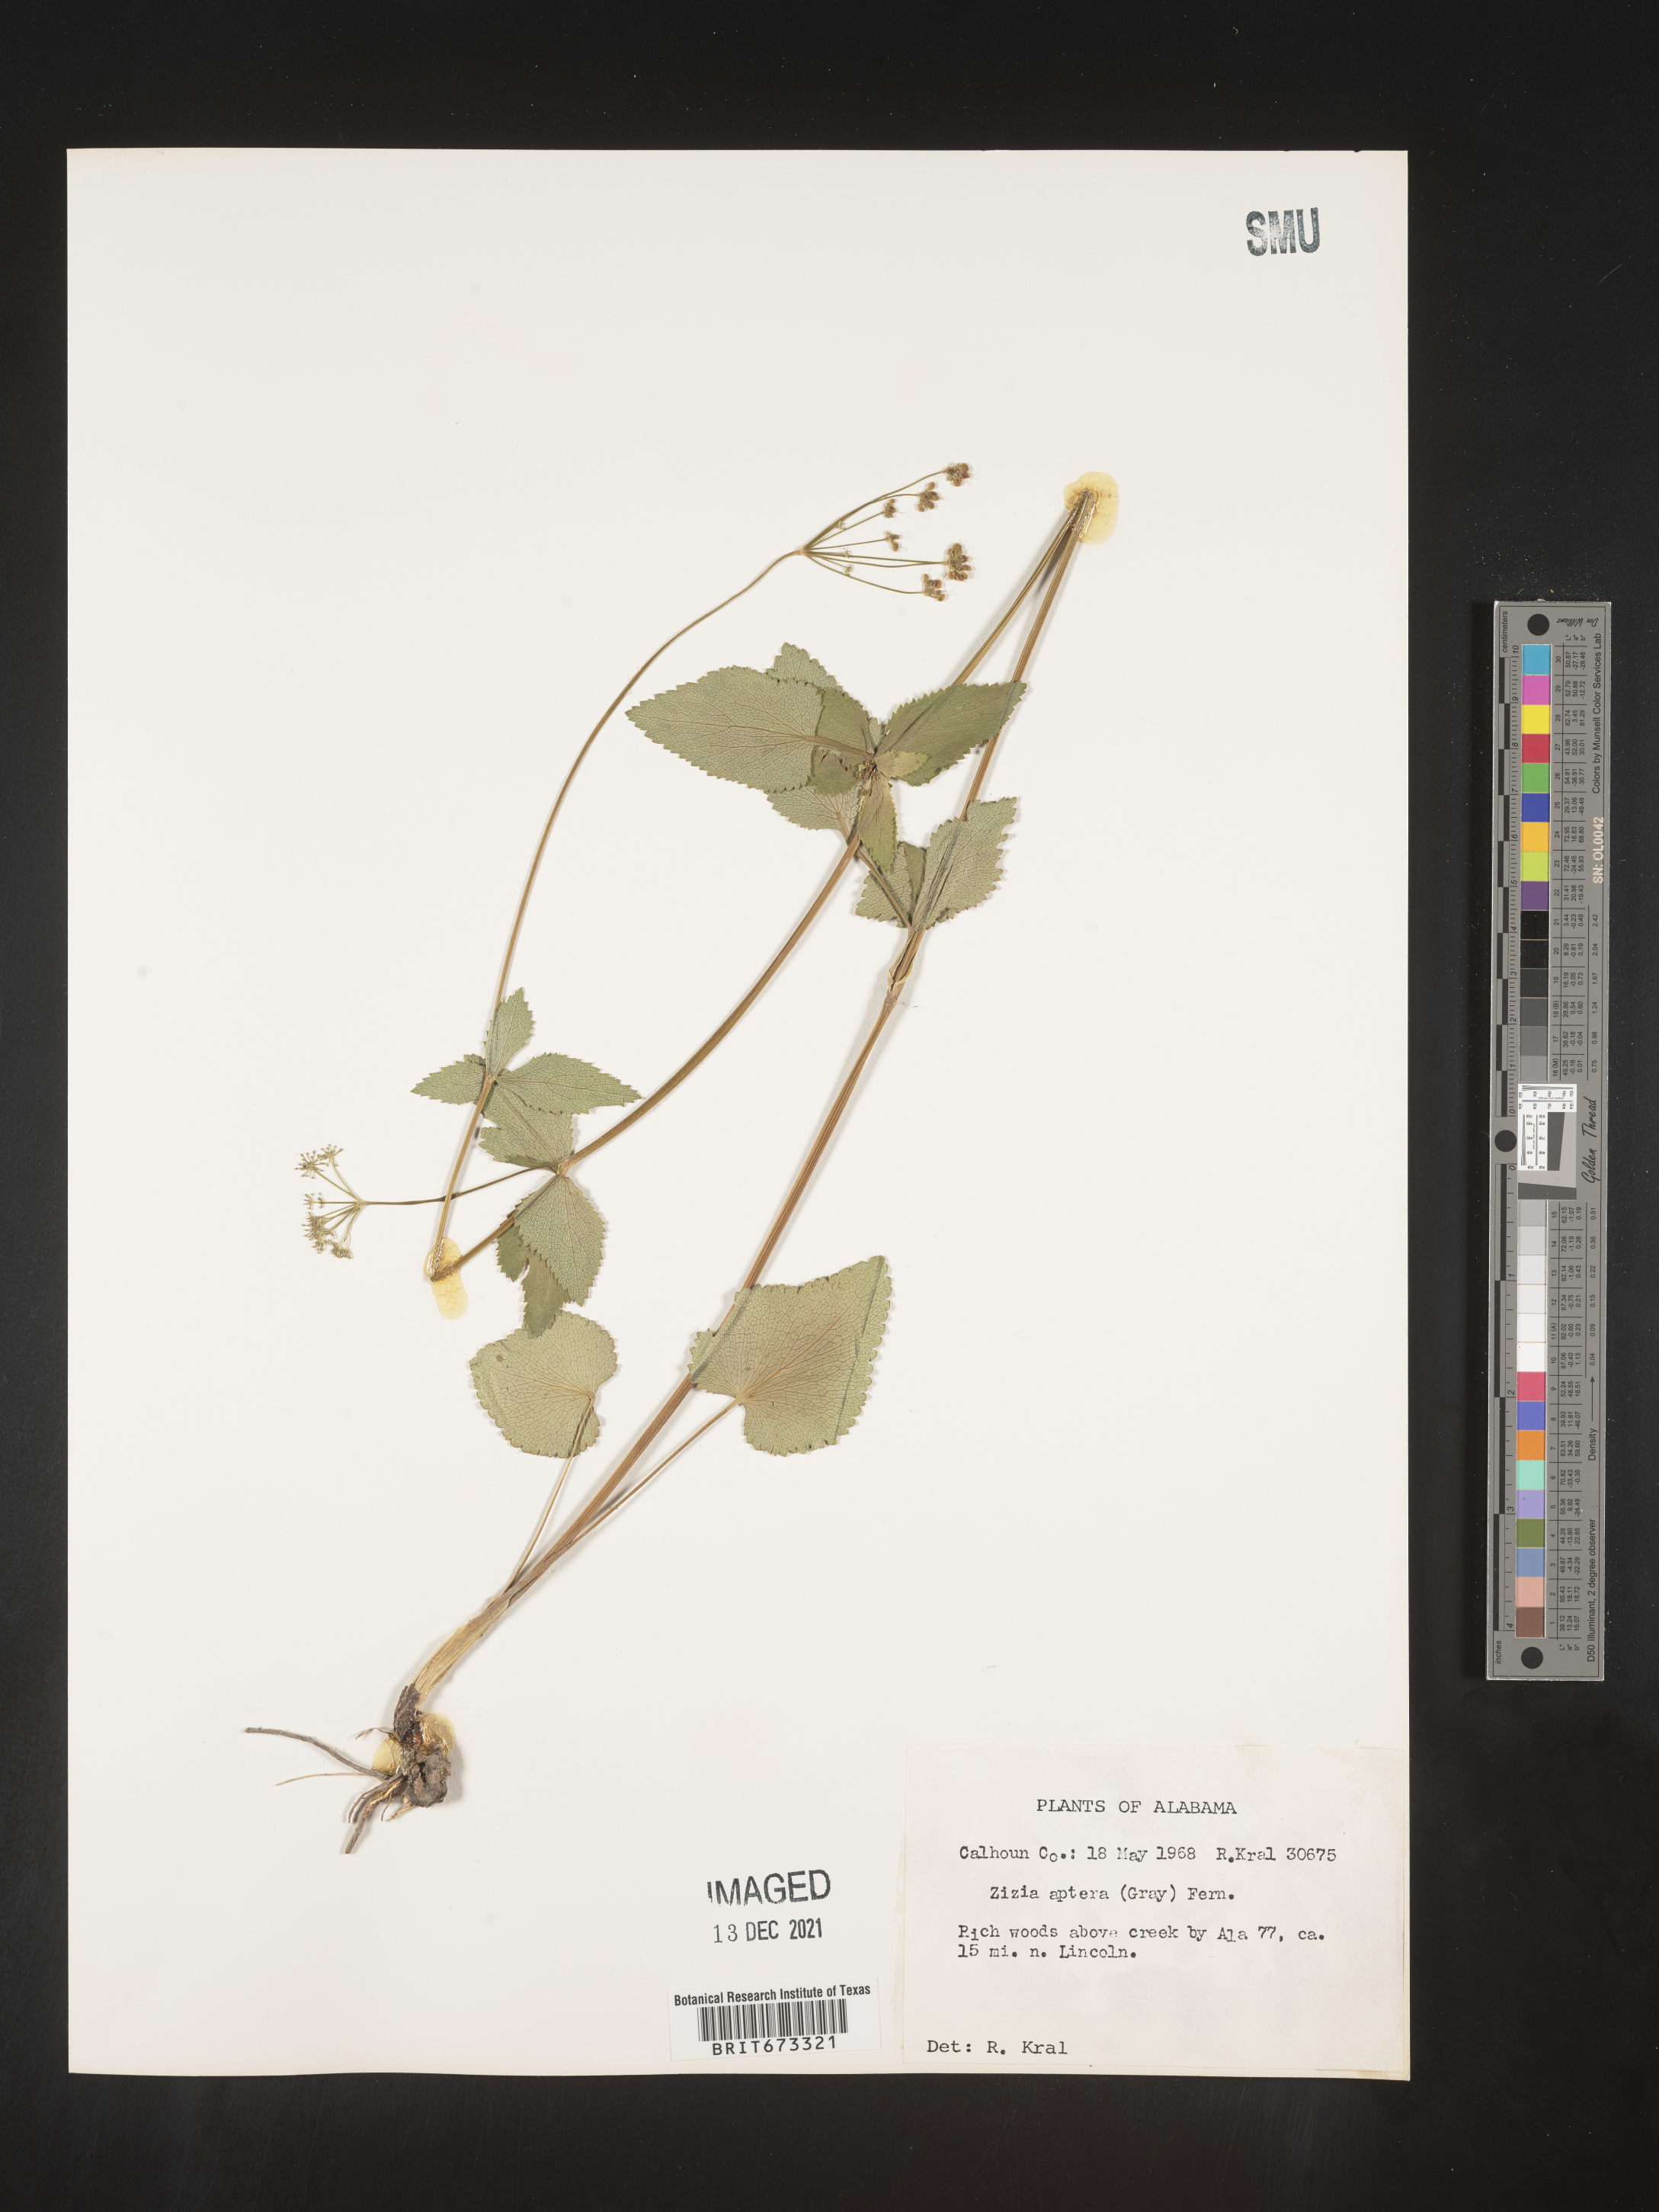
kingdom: Plantae
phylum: Tracheophyta
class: Magnoliopsida
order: Apiales
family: Apiaceae
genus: Zizia
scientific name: Zizia aptera
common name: Heart-leaved alexanders
